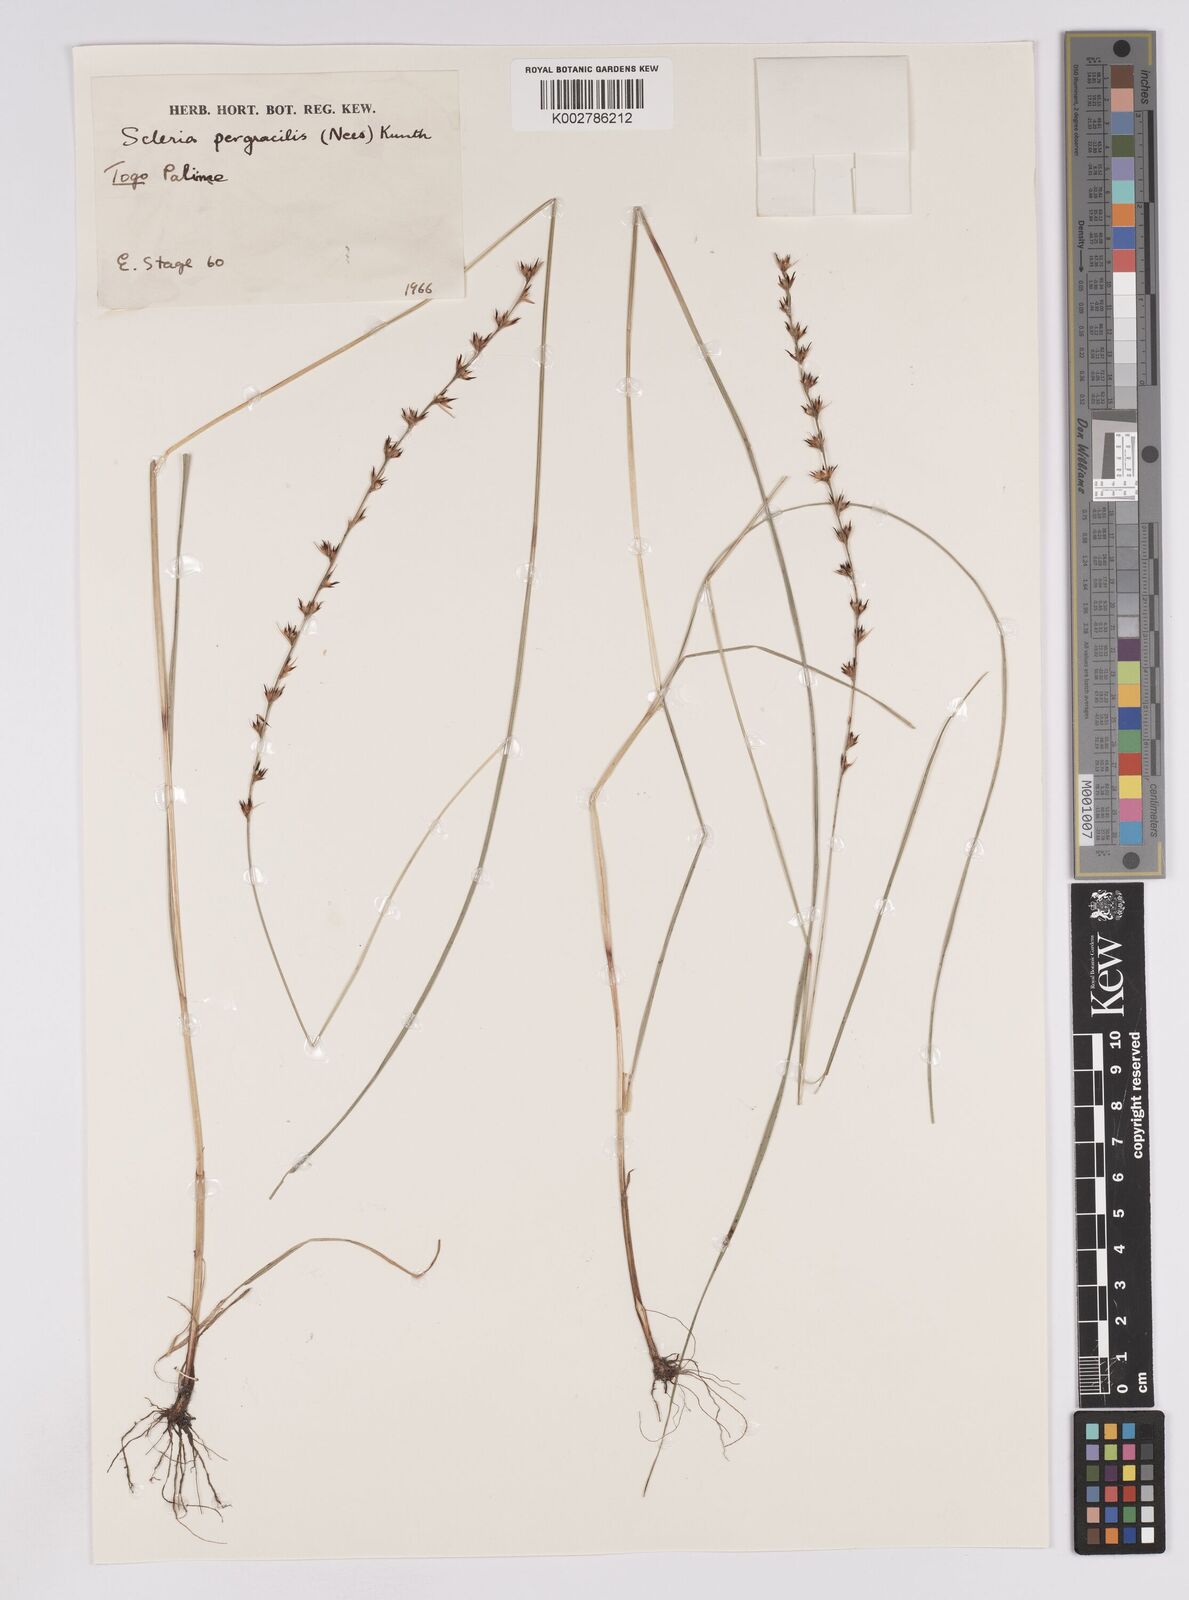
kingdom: Plantae
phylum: Tracheophyta
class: Liliopsida
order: Poales
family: Cyperaceae
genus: Scleria
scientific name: Scleria pergracilis
